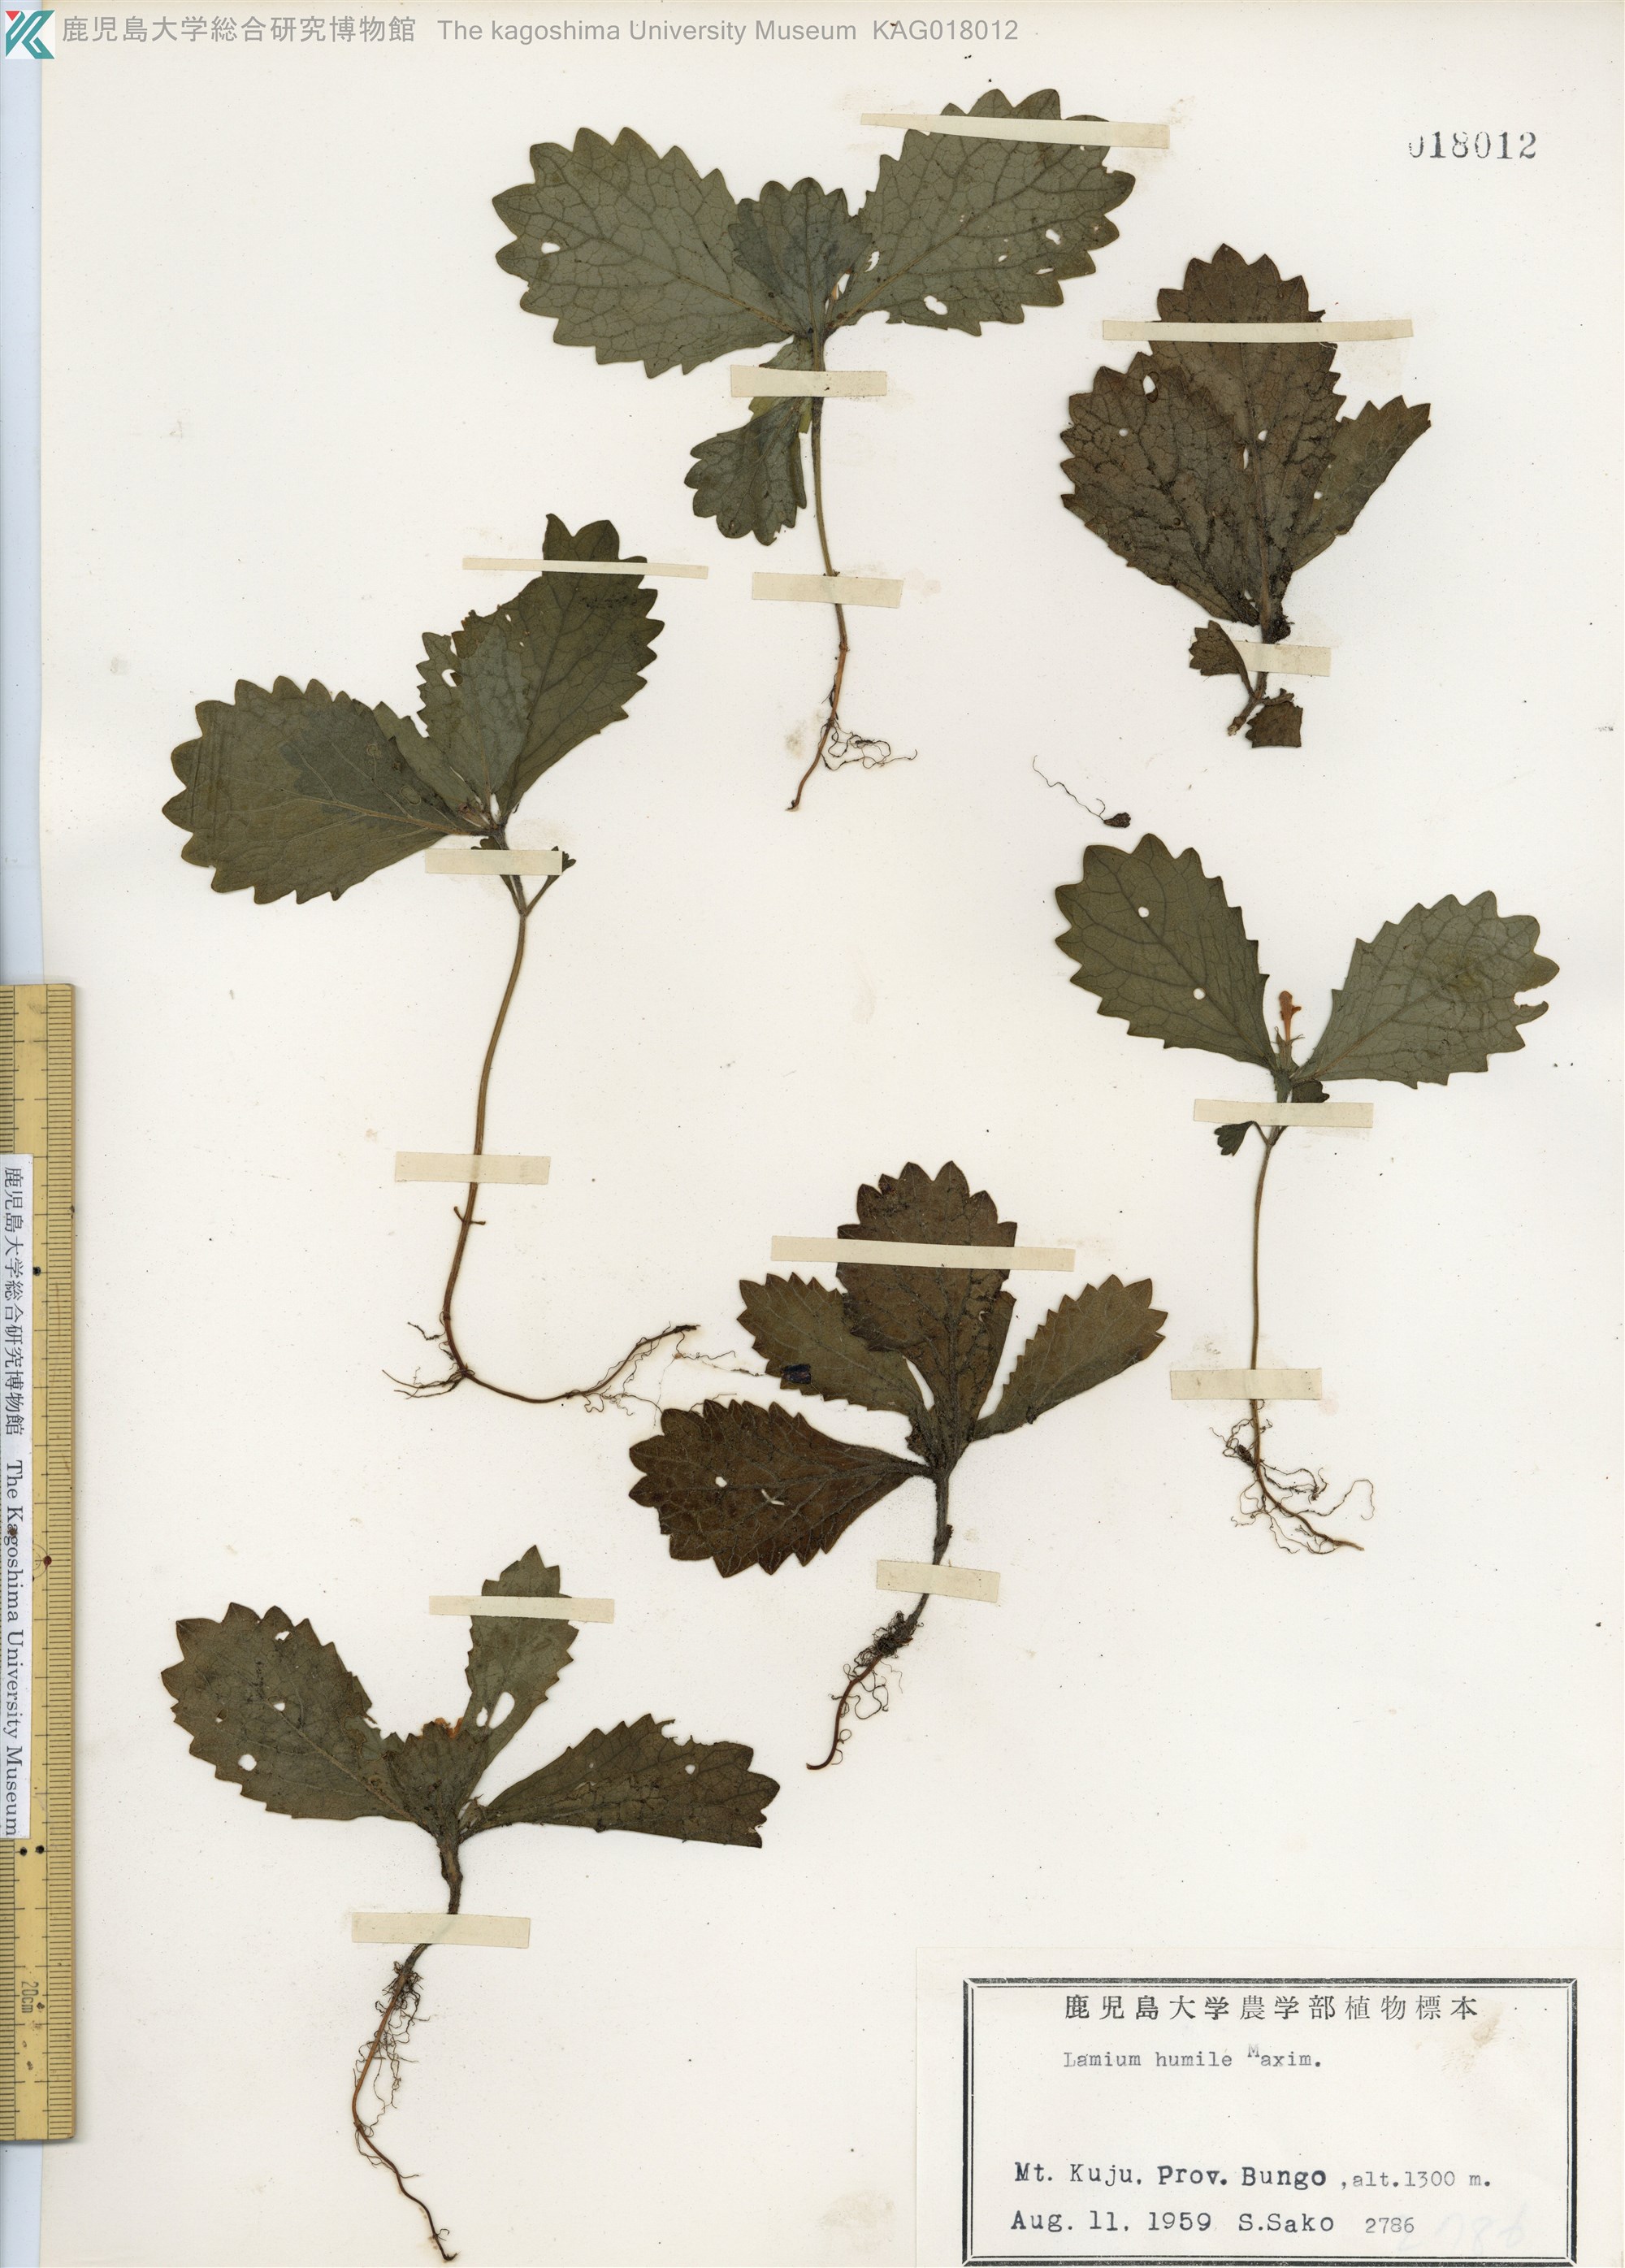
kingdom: Plantae
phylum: Tracheophyta
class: Magnoliopsida
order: Lamiales
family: Lamiaceae
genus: Ajugoides
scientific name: Ajugoides humilis
